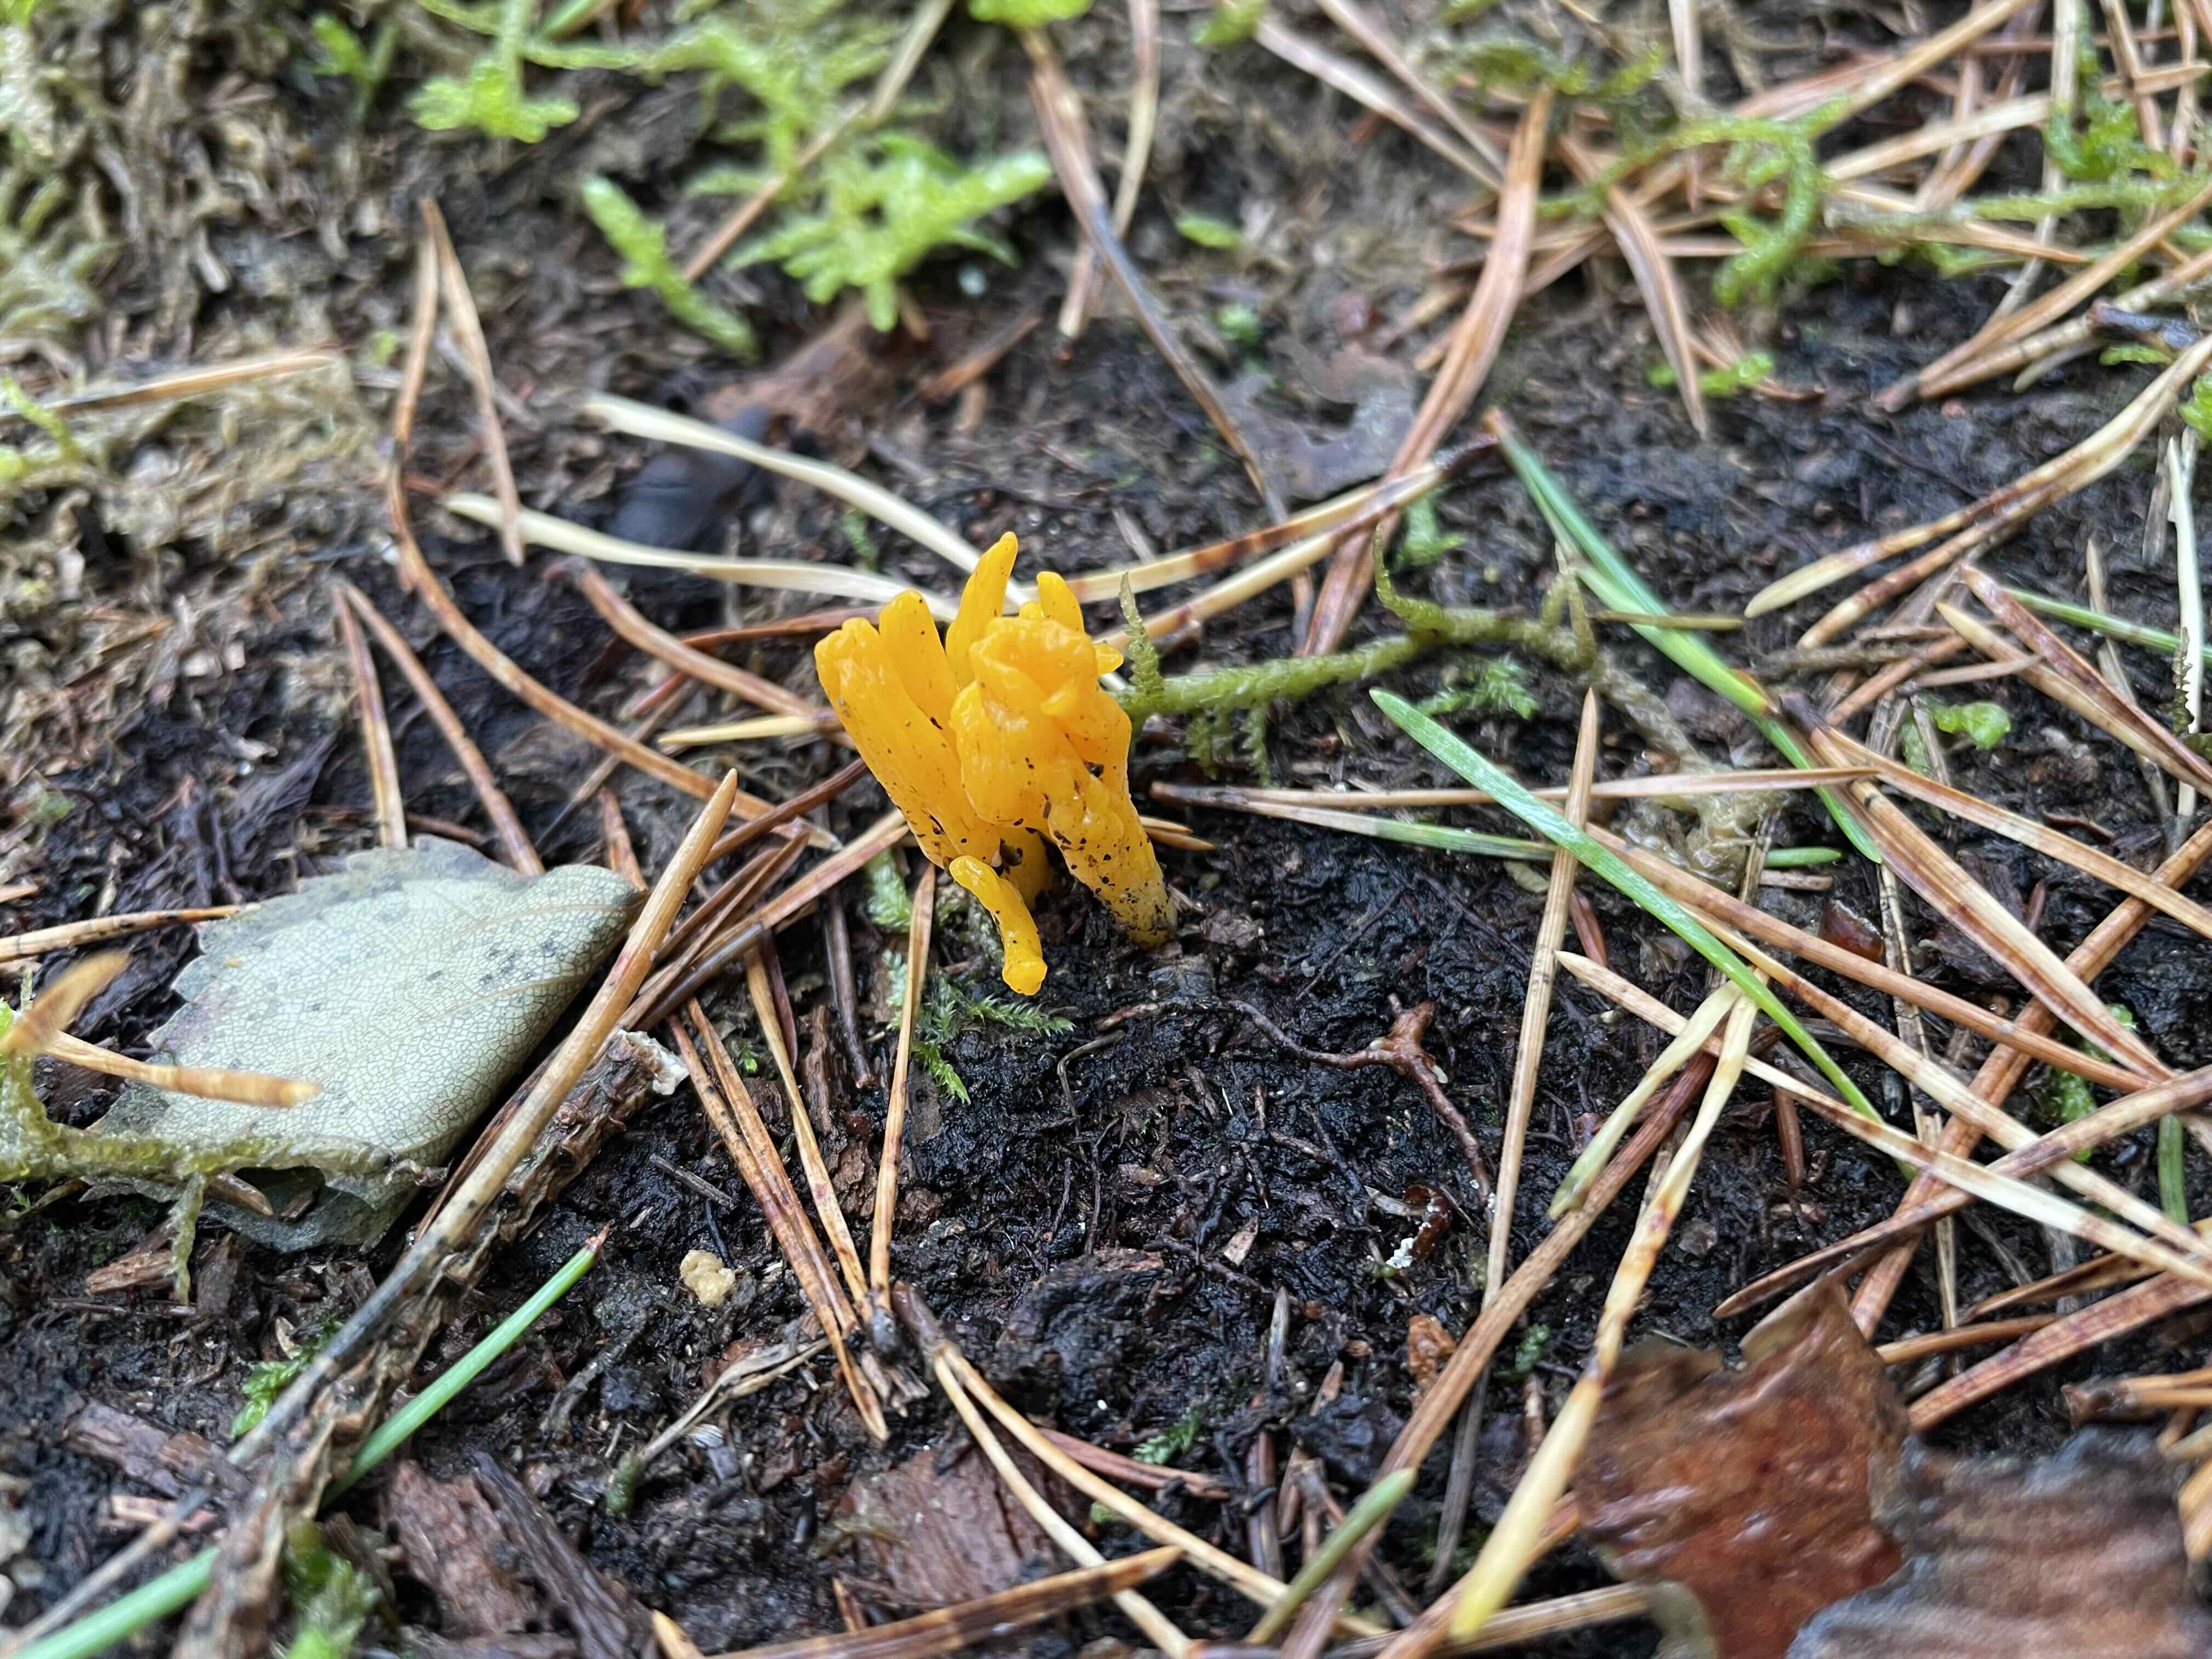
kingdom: Fungi
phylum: Basidiomycota
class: Dacrymycetes
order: Dacrymycetales
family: Dacrymycetaceae
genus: Calocera
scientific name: Calocera viscosa
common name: almindelig guldgaffel
